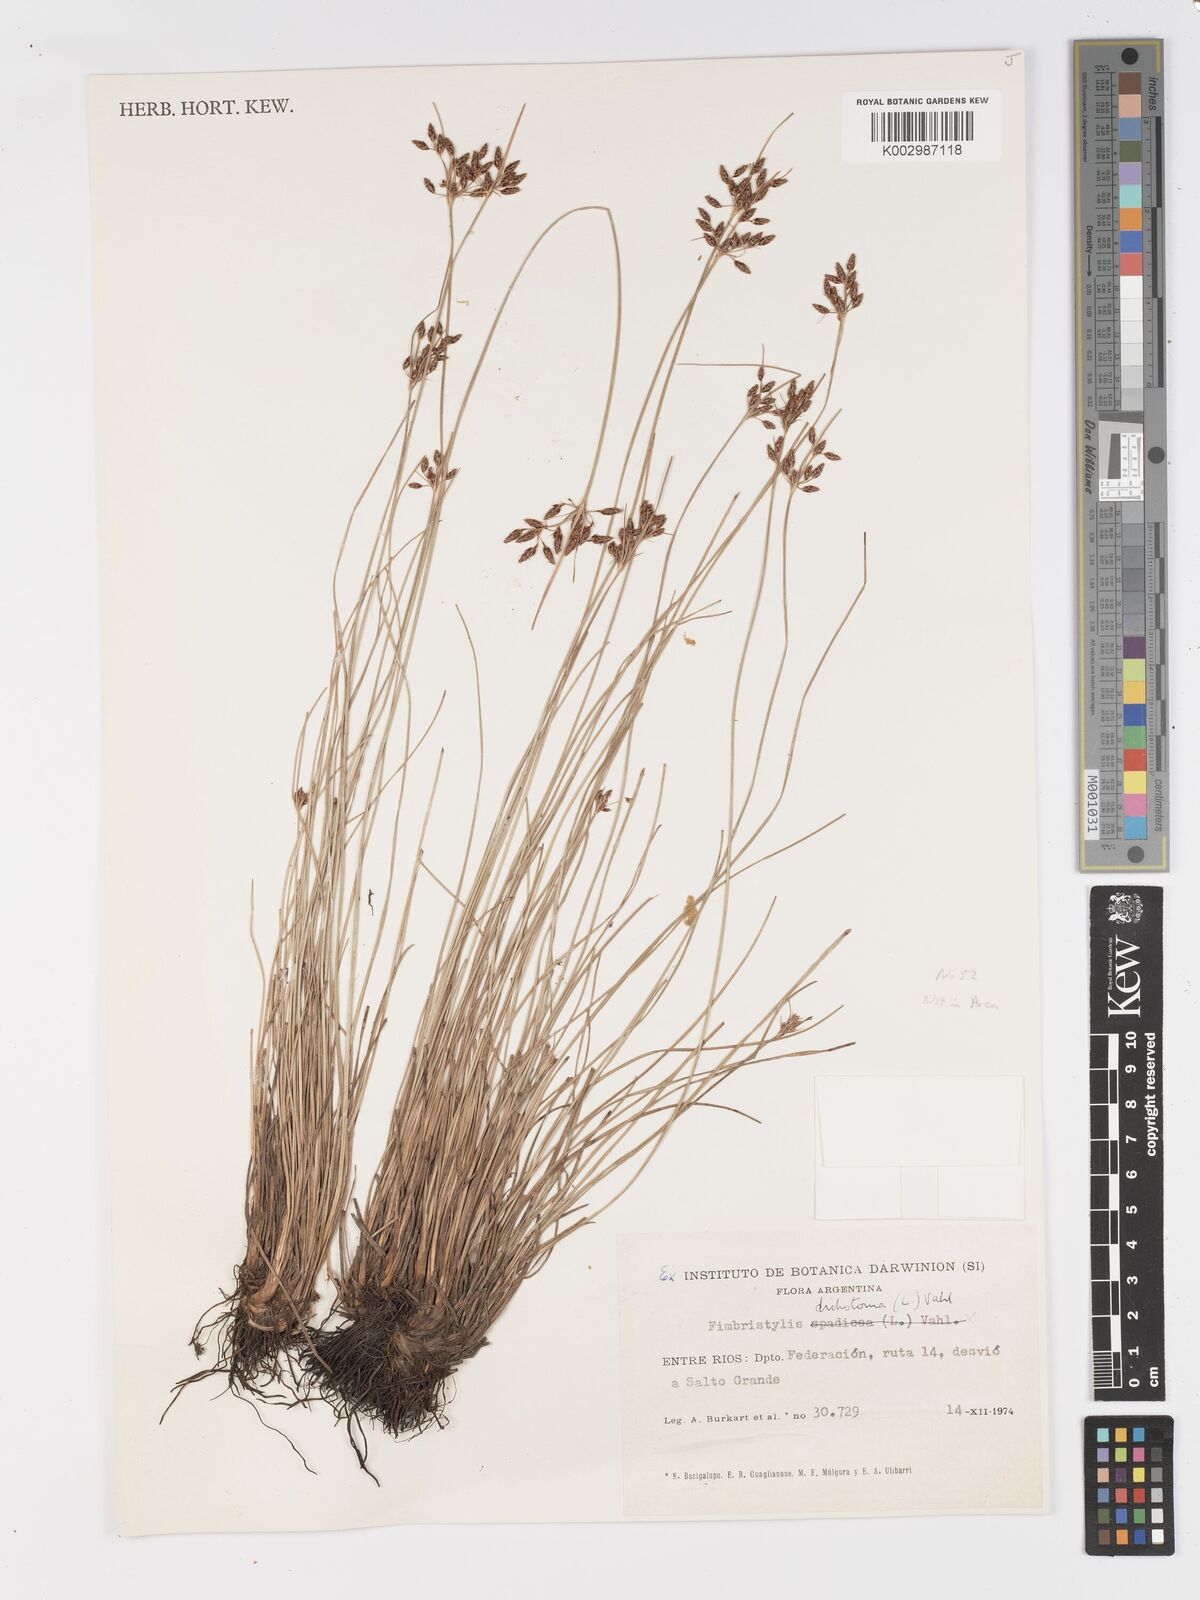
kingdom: Plantae
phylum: Tracheophyta
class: Liliopsida
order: Poales
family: Cyperaceae
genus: Fimbristylis
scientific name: Fimbristylis dichotoma
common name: Forked fimbry
